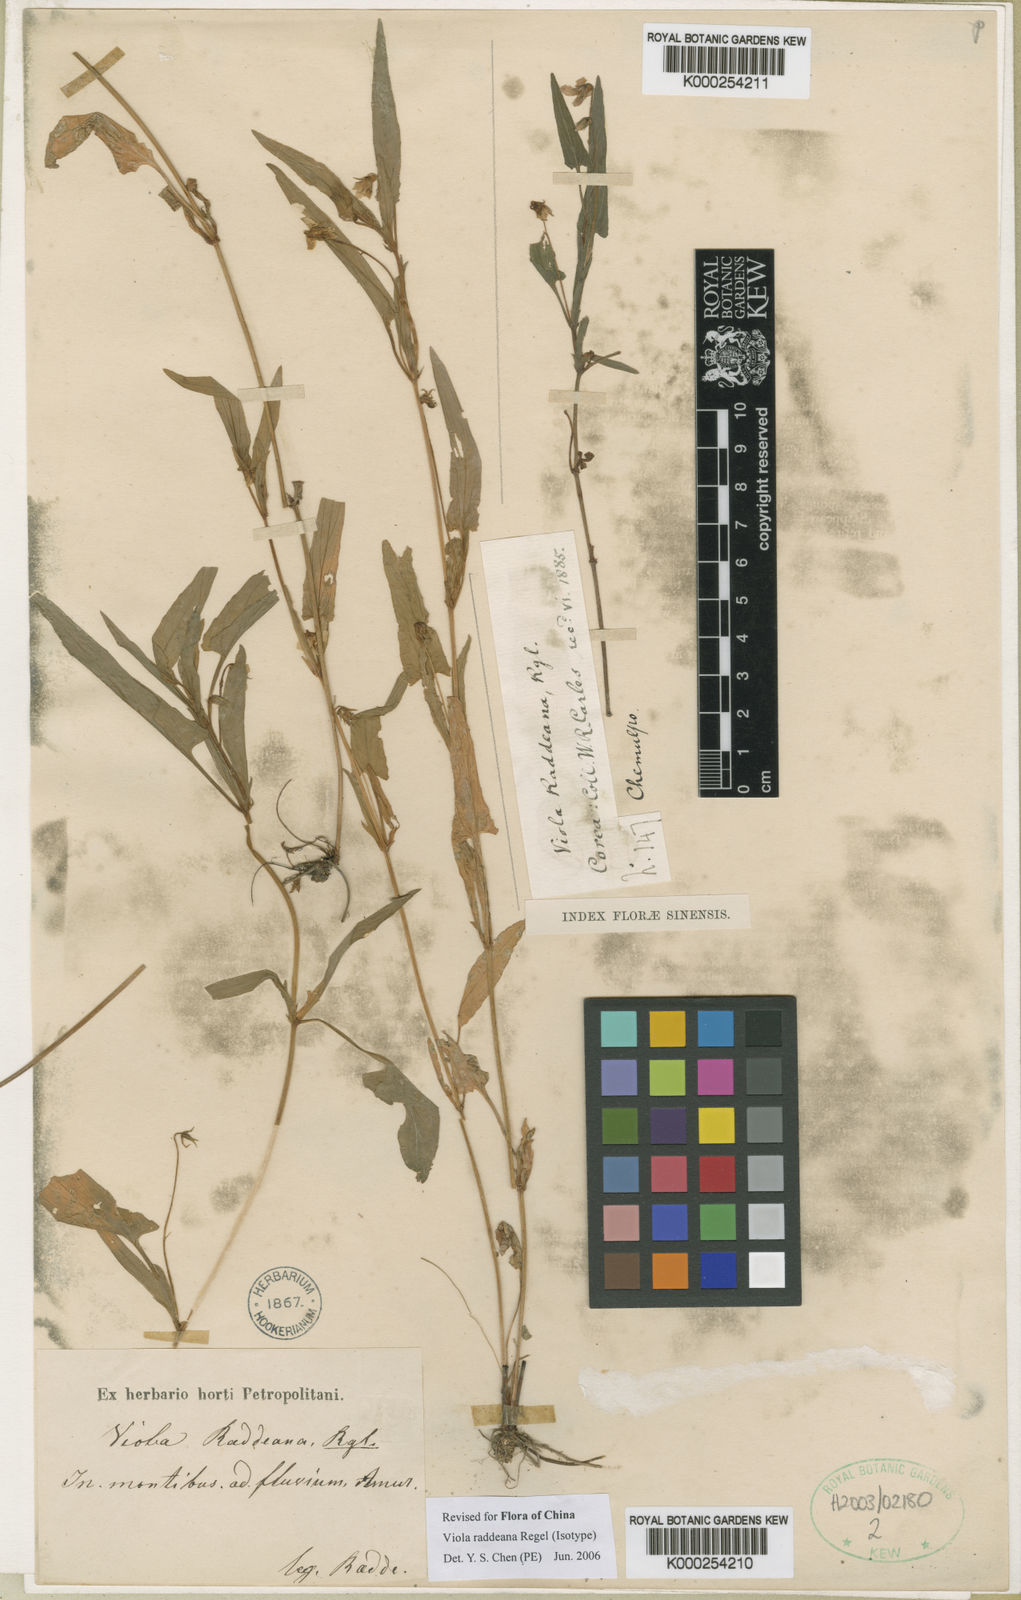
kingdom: Plantae
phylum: Tracheophyta
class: Magnoliopsida
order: Malpighiales
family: Violaceae
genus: Viola
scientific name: Viola raddeana
